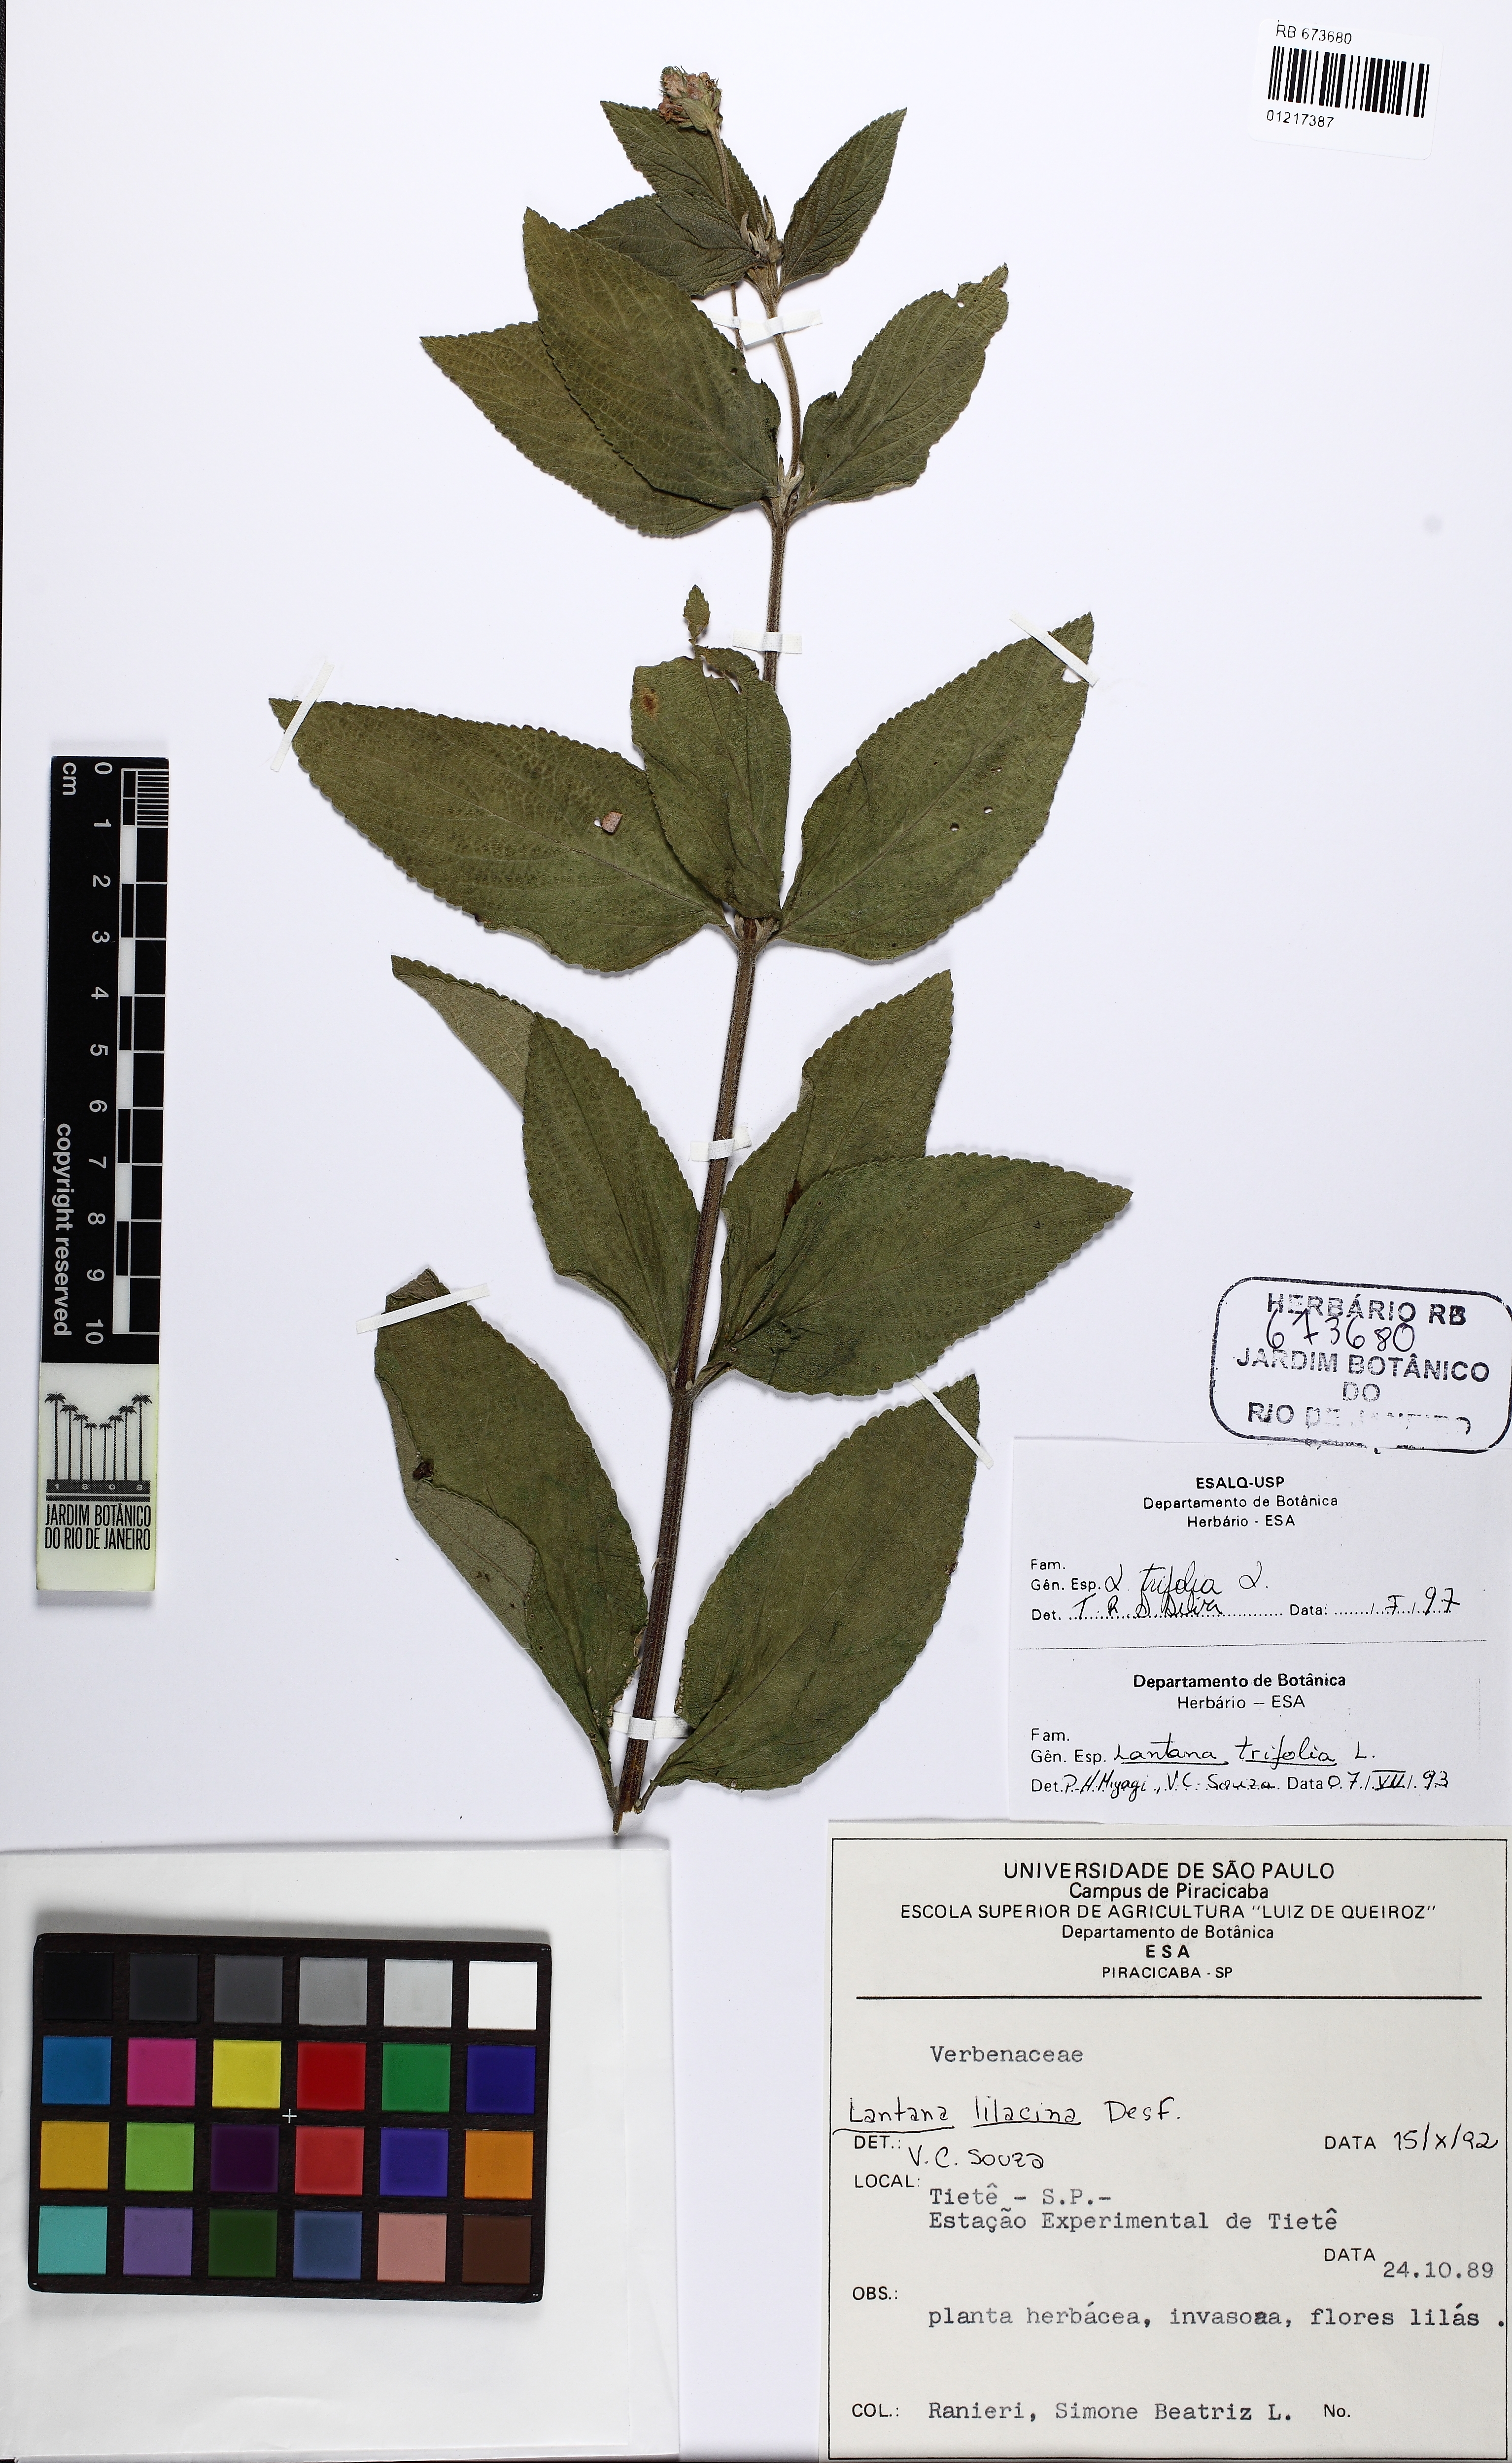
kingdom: Plantae
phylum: Tracheophyta
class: Magnoliopsida
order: Lamiales
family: Verbenaceae
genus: Lantana
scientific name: Lantana trifolia
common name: Sweet-sage
